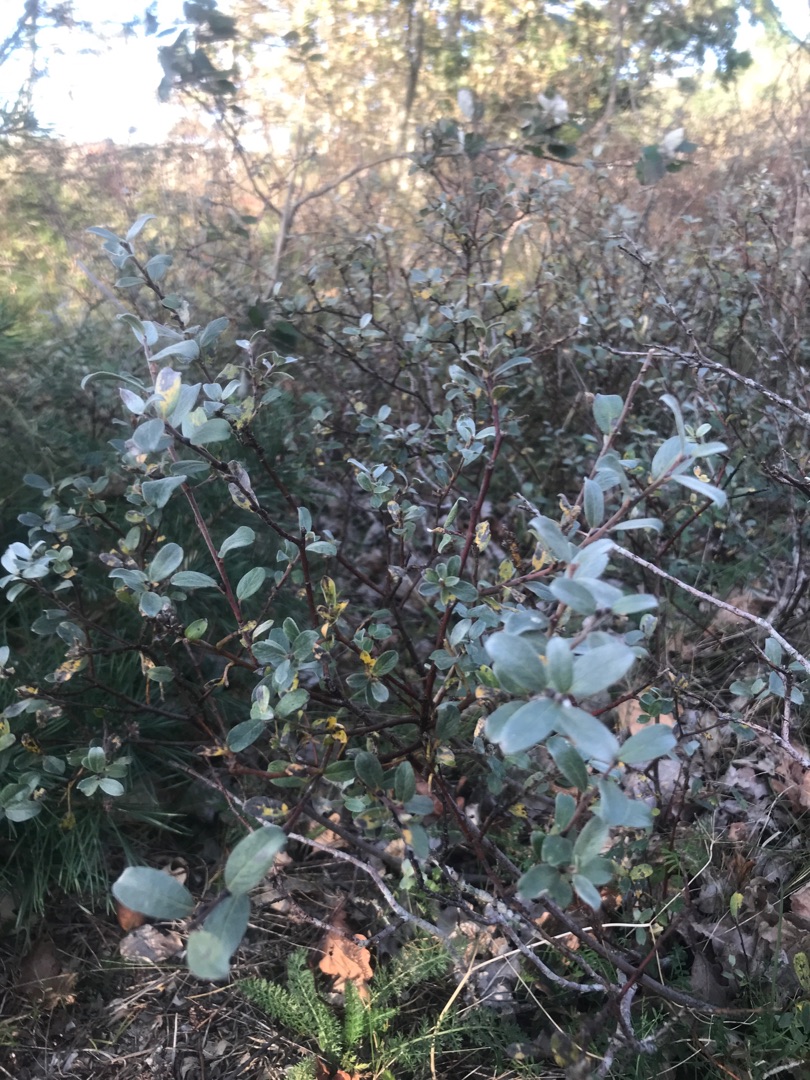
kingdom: Plantae
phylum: Tracheophyta
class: Magnoliopsida
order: Malpighiales
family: Salicaceae
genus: Salix
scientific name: Salix repens
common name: Krybende pil
